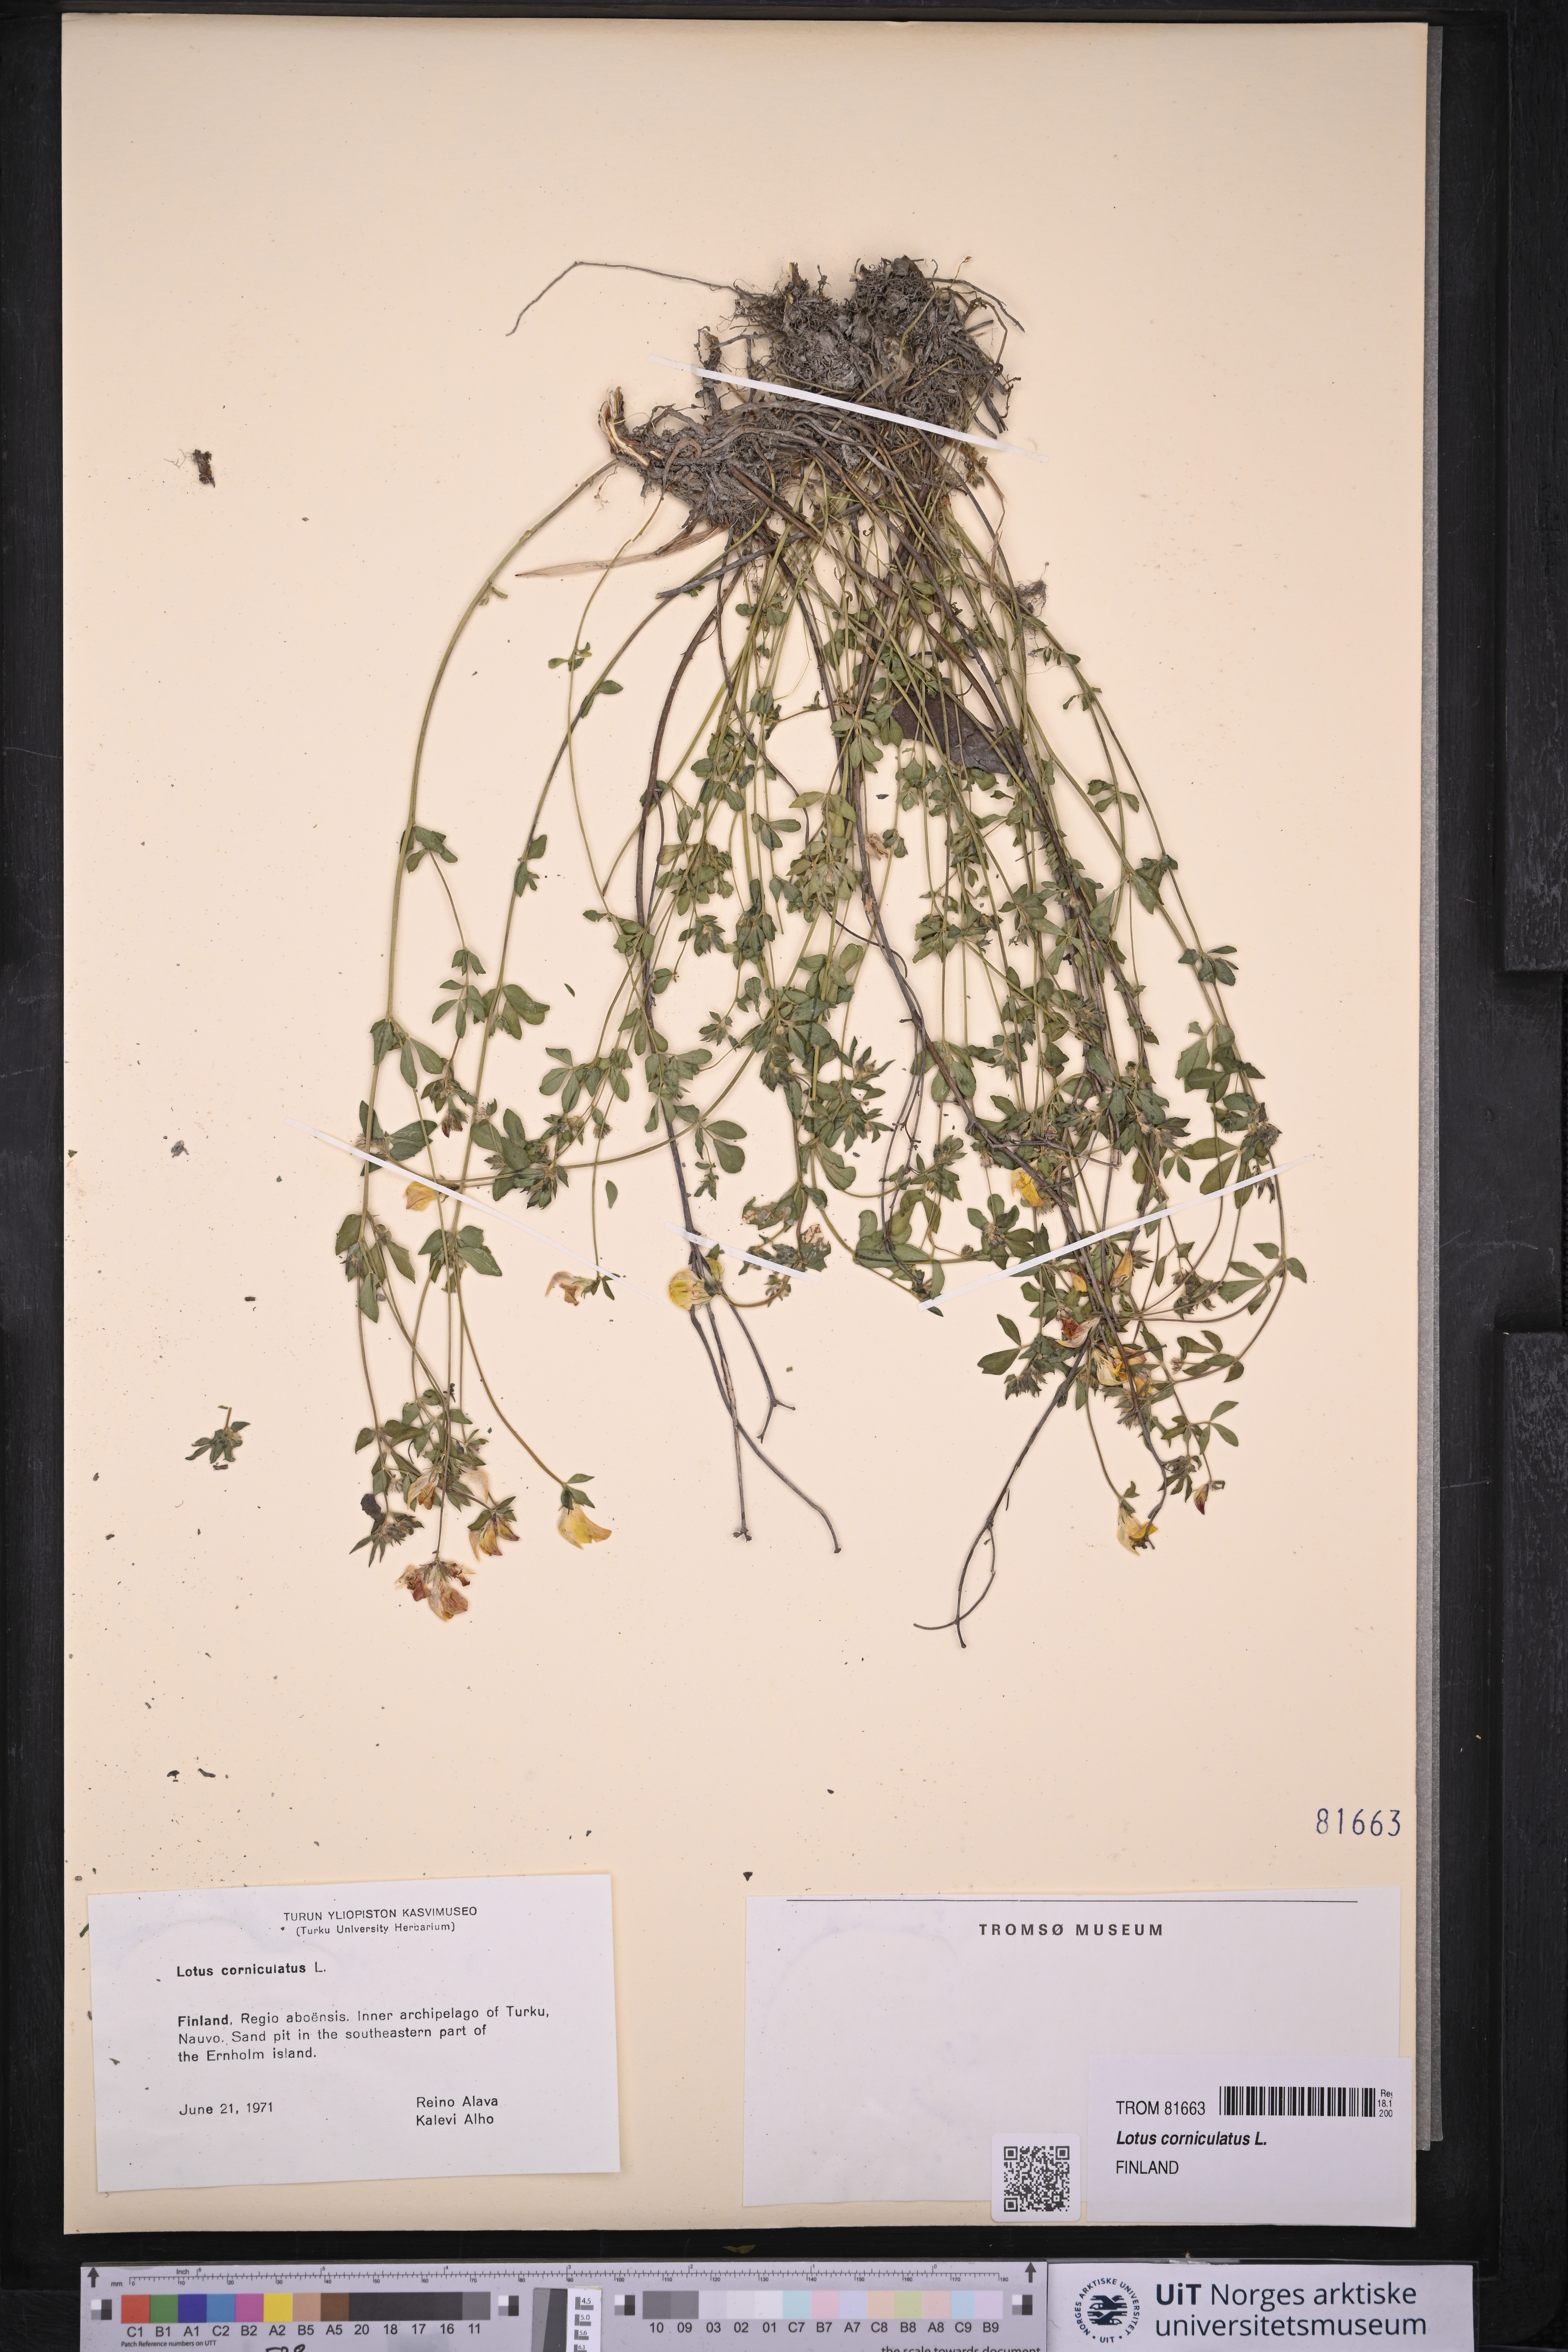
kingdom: Plantae
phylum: Tracheophyta
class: Magnoliopsida
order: Fabales
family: Fabaceae
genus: Lotus
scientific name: Lotus corniculatus
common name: Common bird's-foot-trefoil
